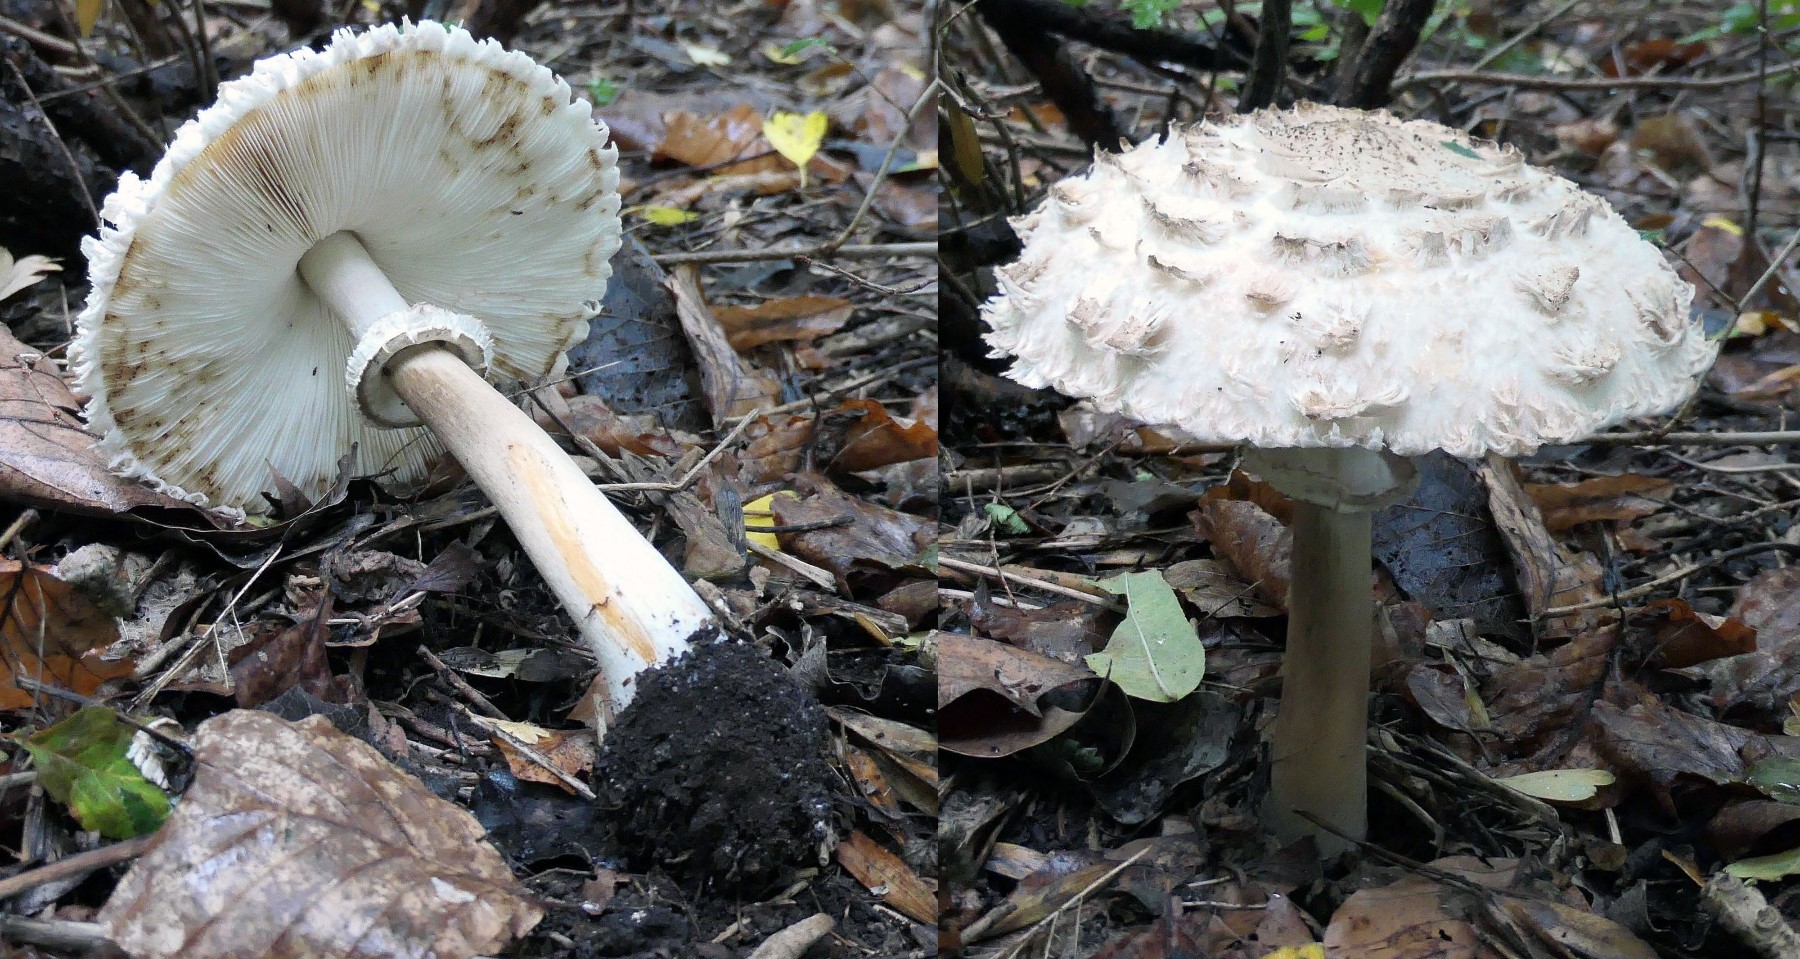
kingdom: Fungi
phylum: Basidiomycota
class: Agaricomycetes
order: Agaricales
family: Agaricaceae
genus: Chlorophyllum
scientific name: Chlorophyllum rhacodes
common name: ægte rabarberhat
